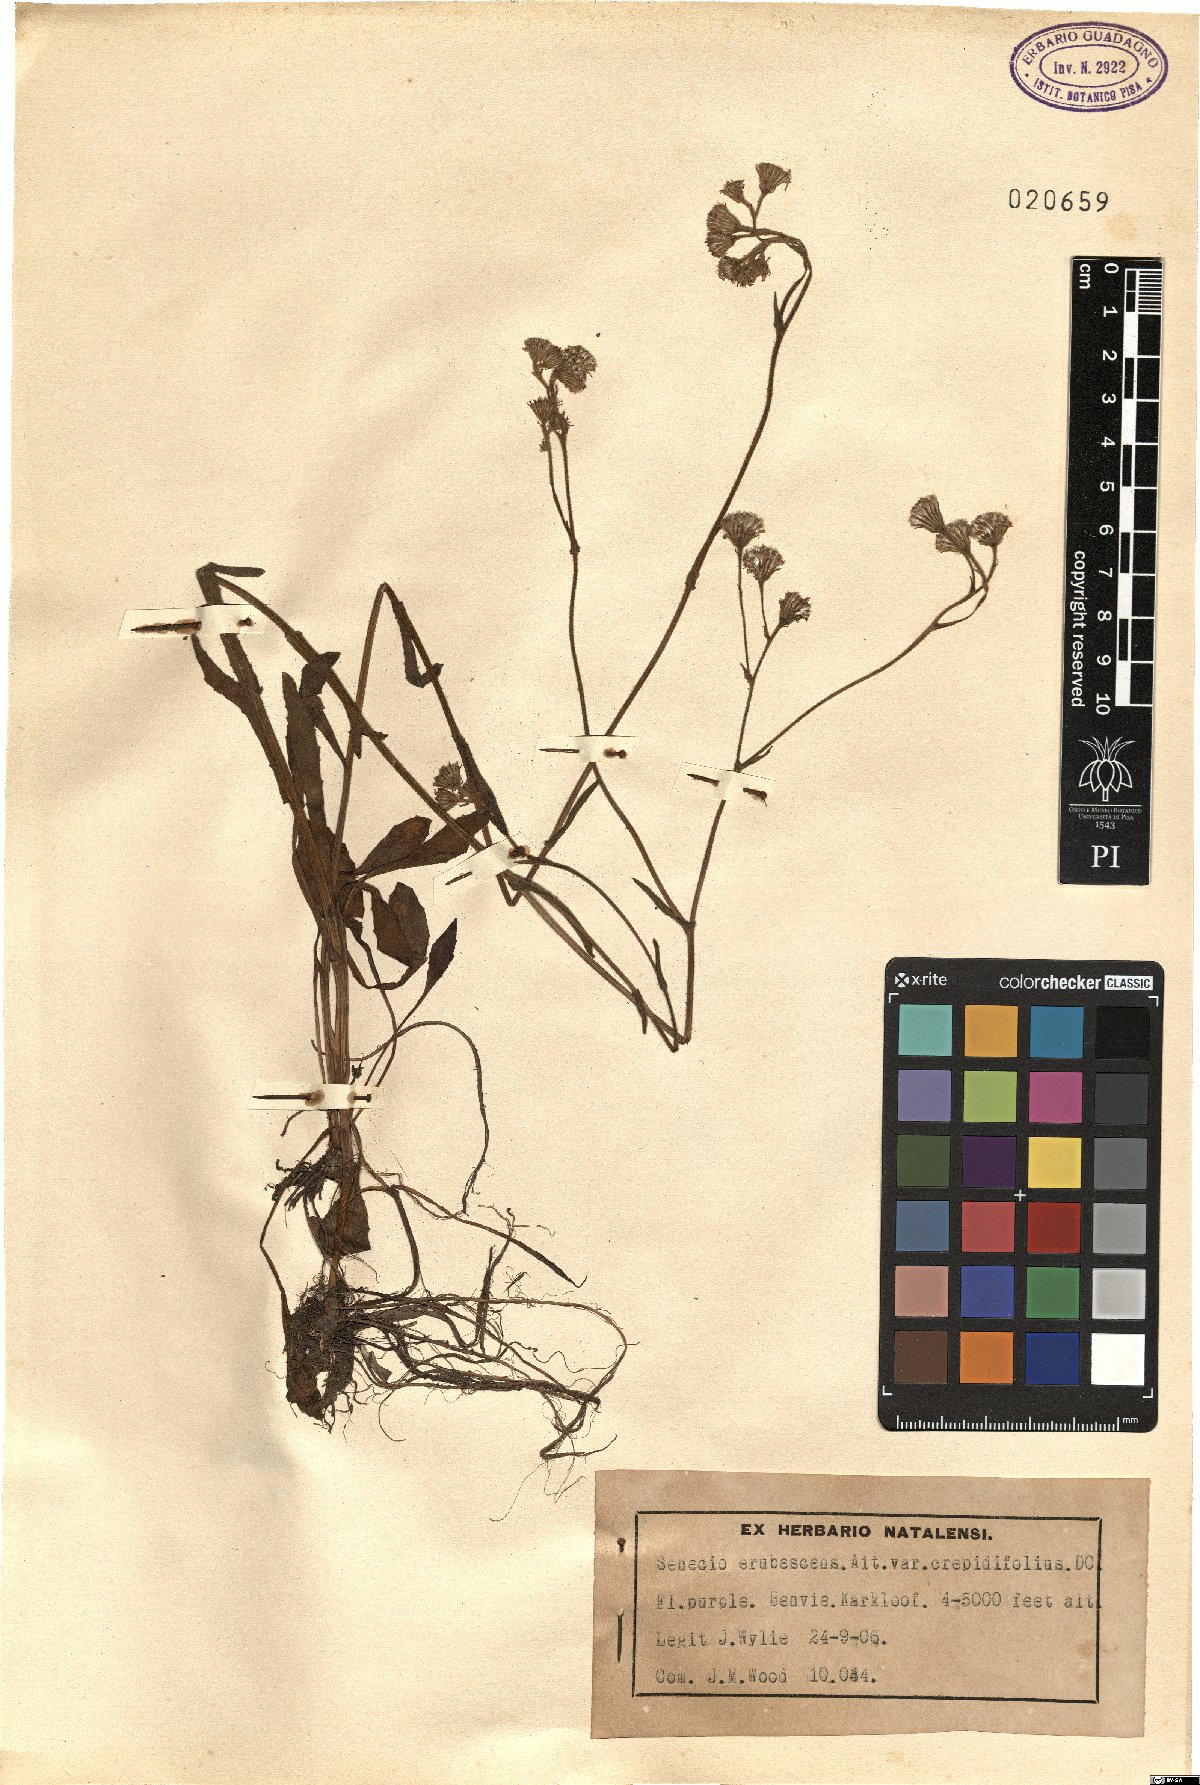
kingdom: Plantae
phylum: Tracheophyta
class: Magnoliopsida
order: Asterales
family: Asteraceae
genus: Senecio
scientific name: Senecio erubescens
